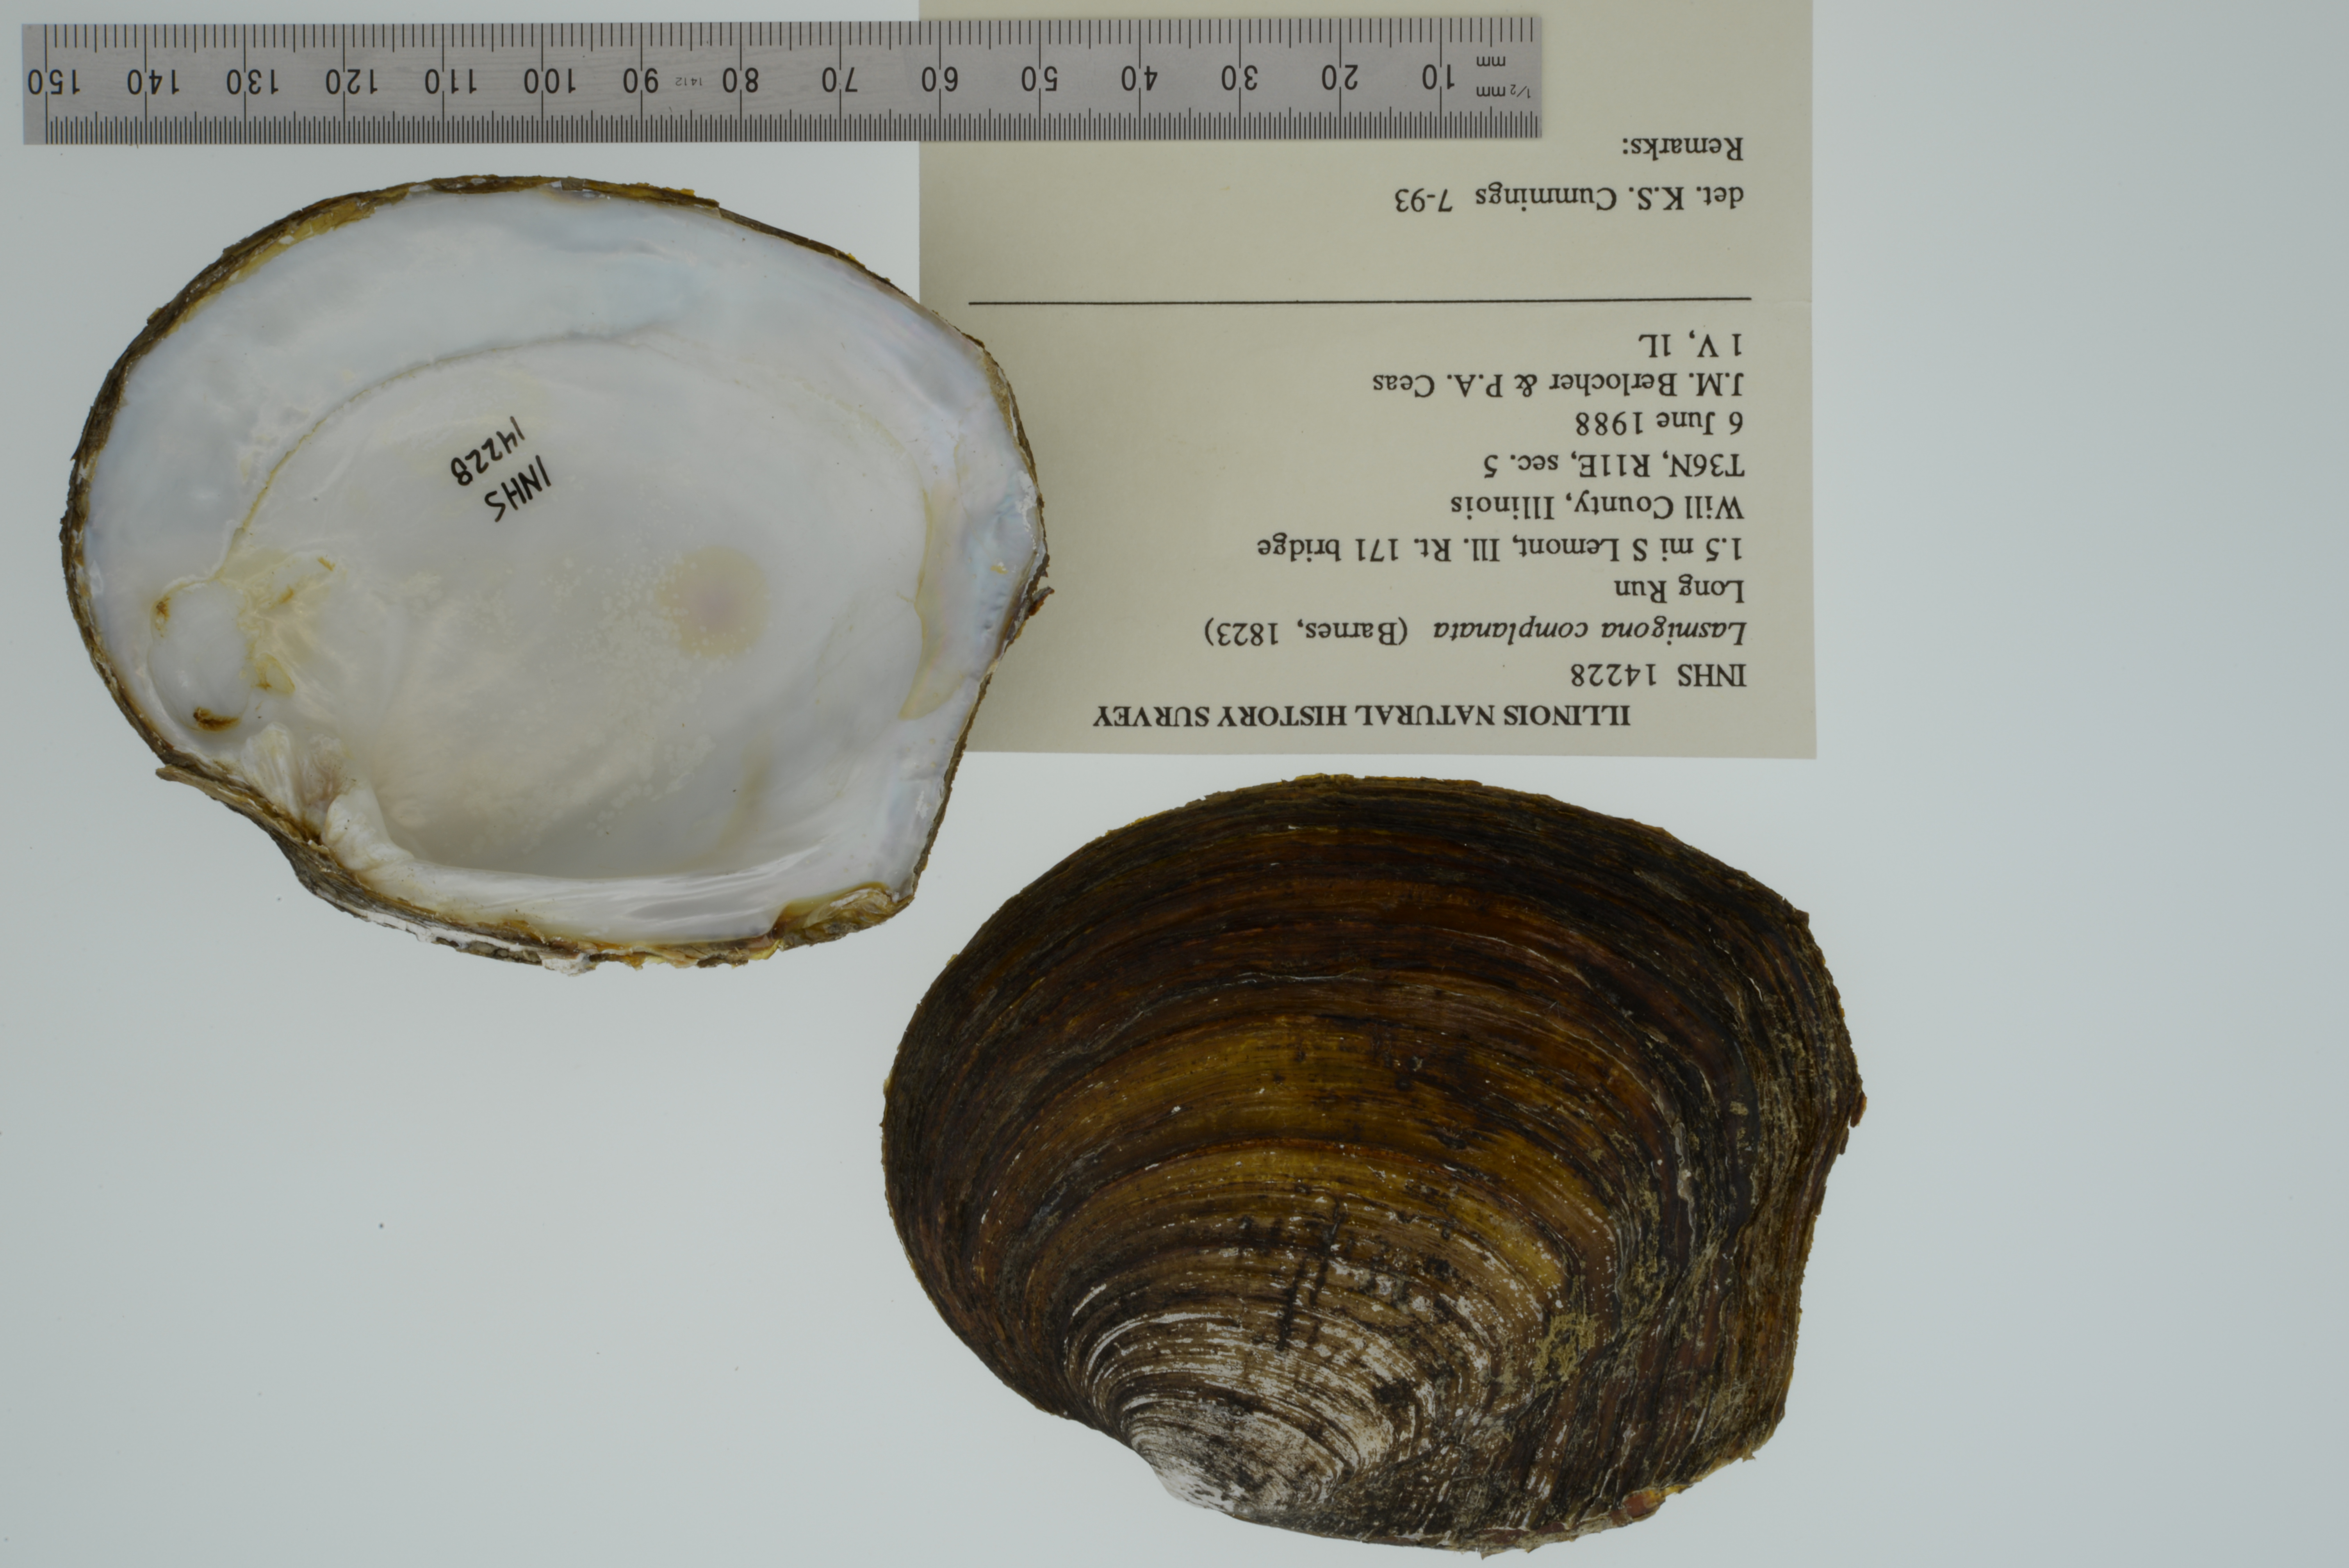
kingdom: Animalia
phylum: Mollusca
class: Bivalvia
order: Unionida
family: Unionidae
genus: Lasmigona
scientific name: Lasmigona complanata
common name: White heelsplitter
